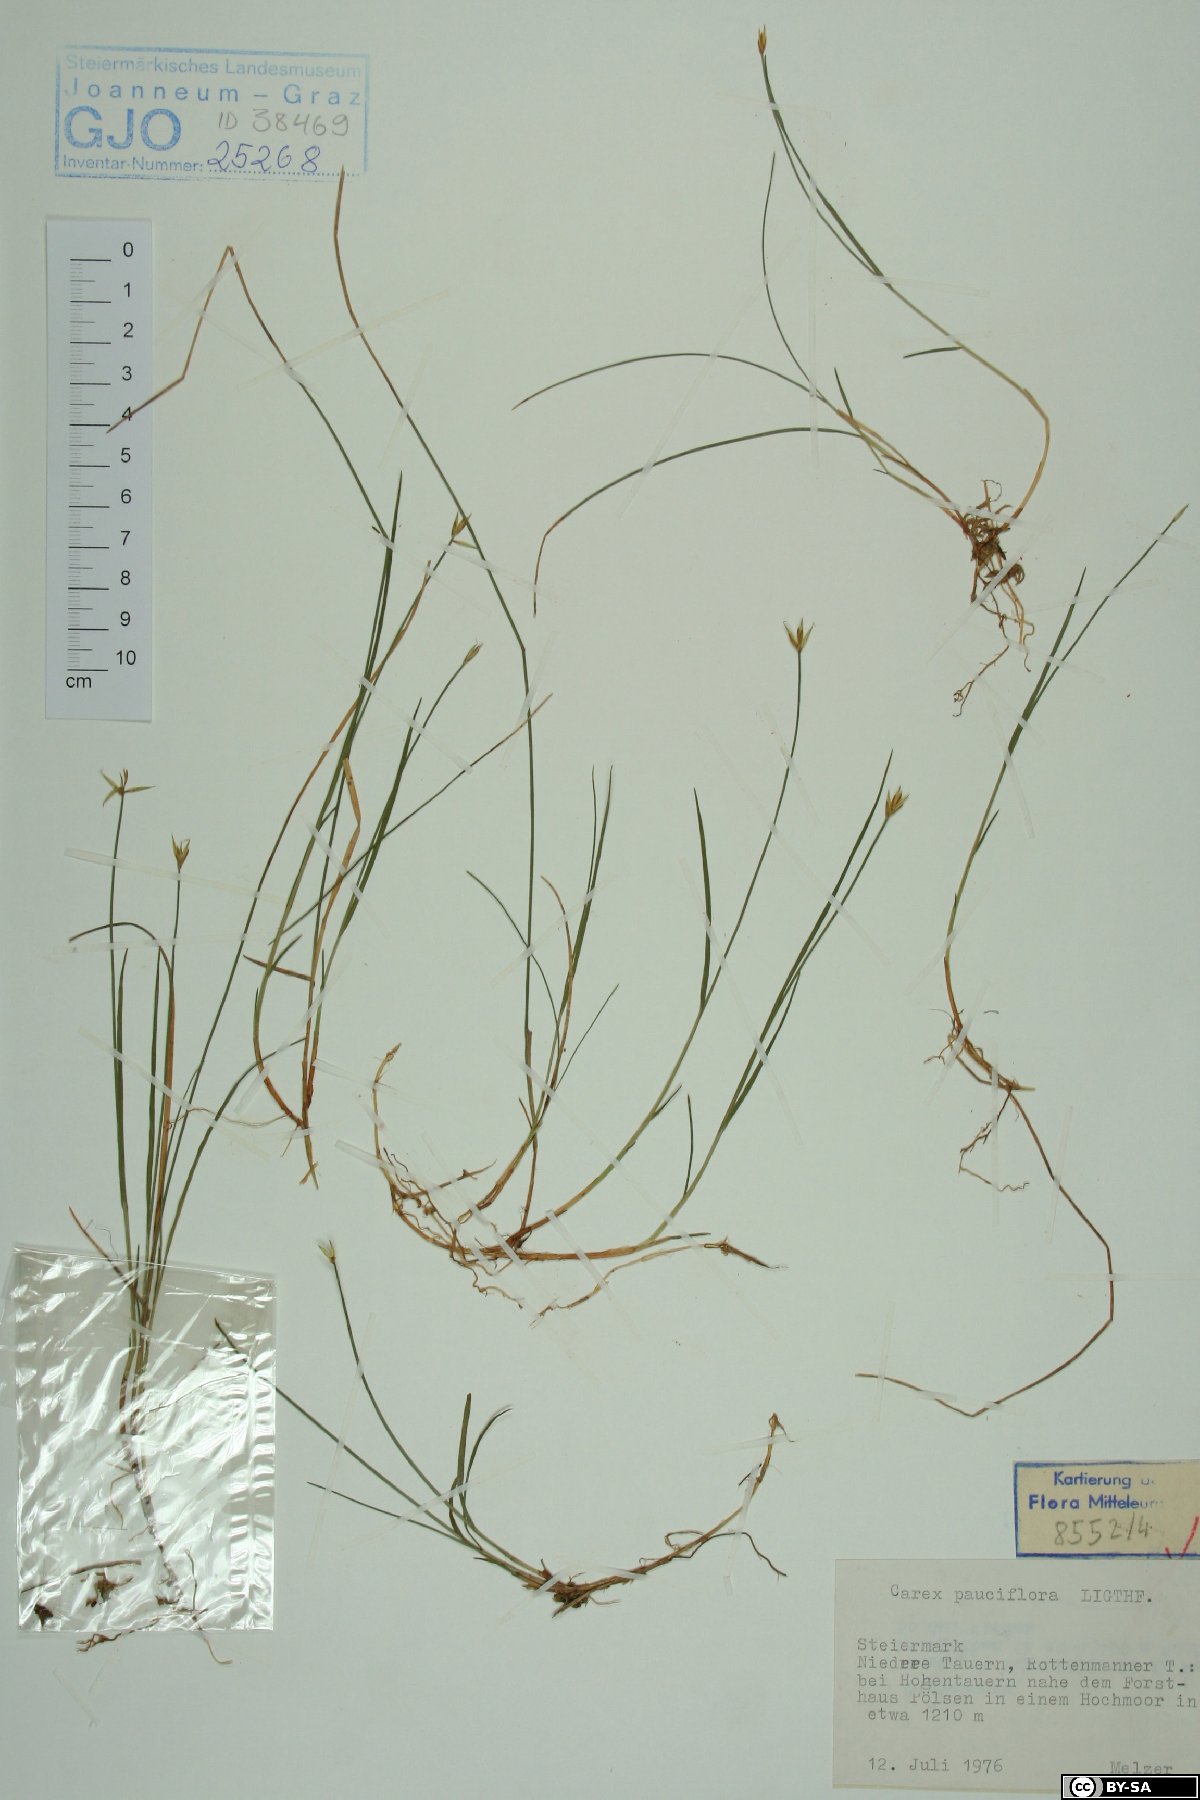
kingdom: Plantae
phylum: Tracheophyta
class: Liliopsida
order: Poales
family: Cyperaceae
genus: Carex
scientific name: Carex pauciflora
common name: Few-flowered sedge
